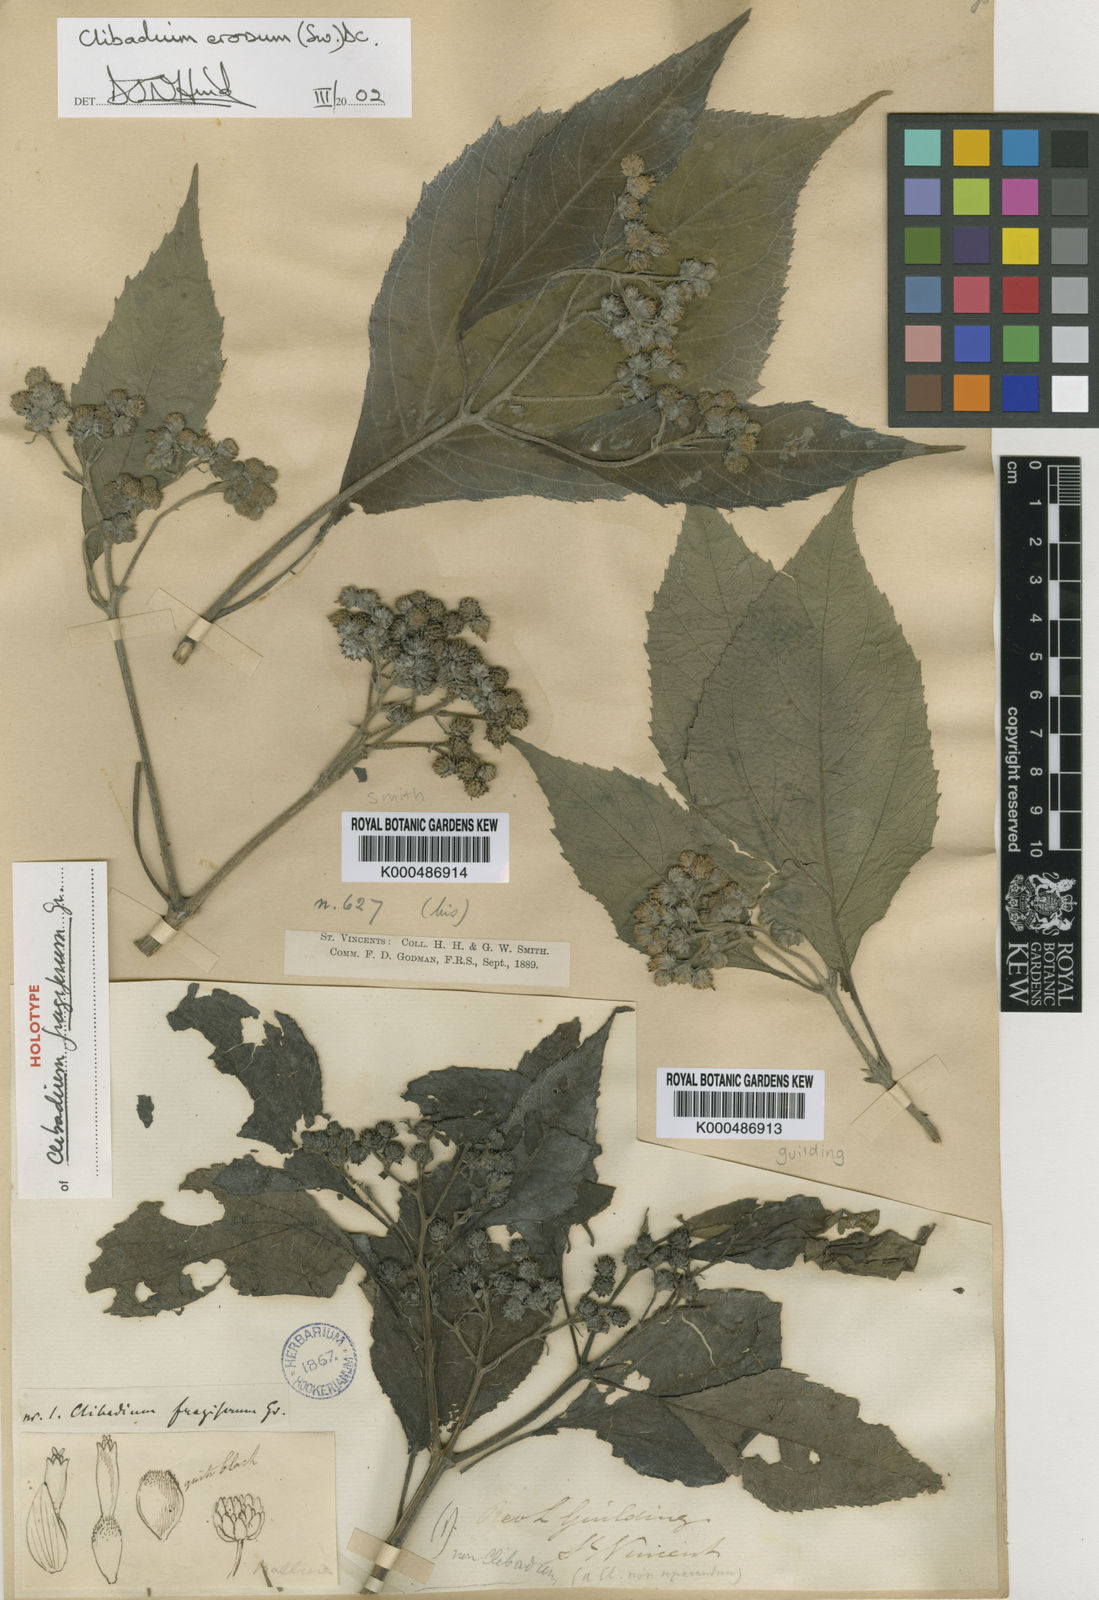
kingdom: Plantae
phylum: Tracheophyta
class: Magnoliopsida
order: Asterales
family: Asteraceae
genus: Clibadium
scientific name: Clibadium erosum
